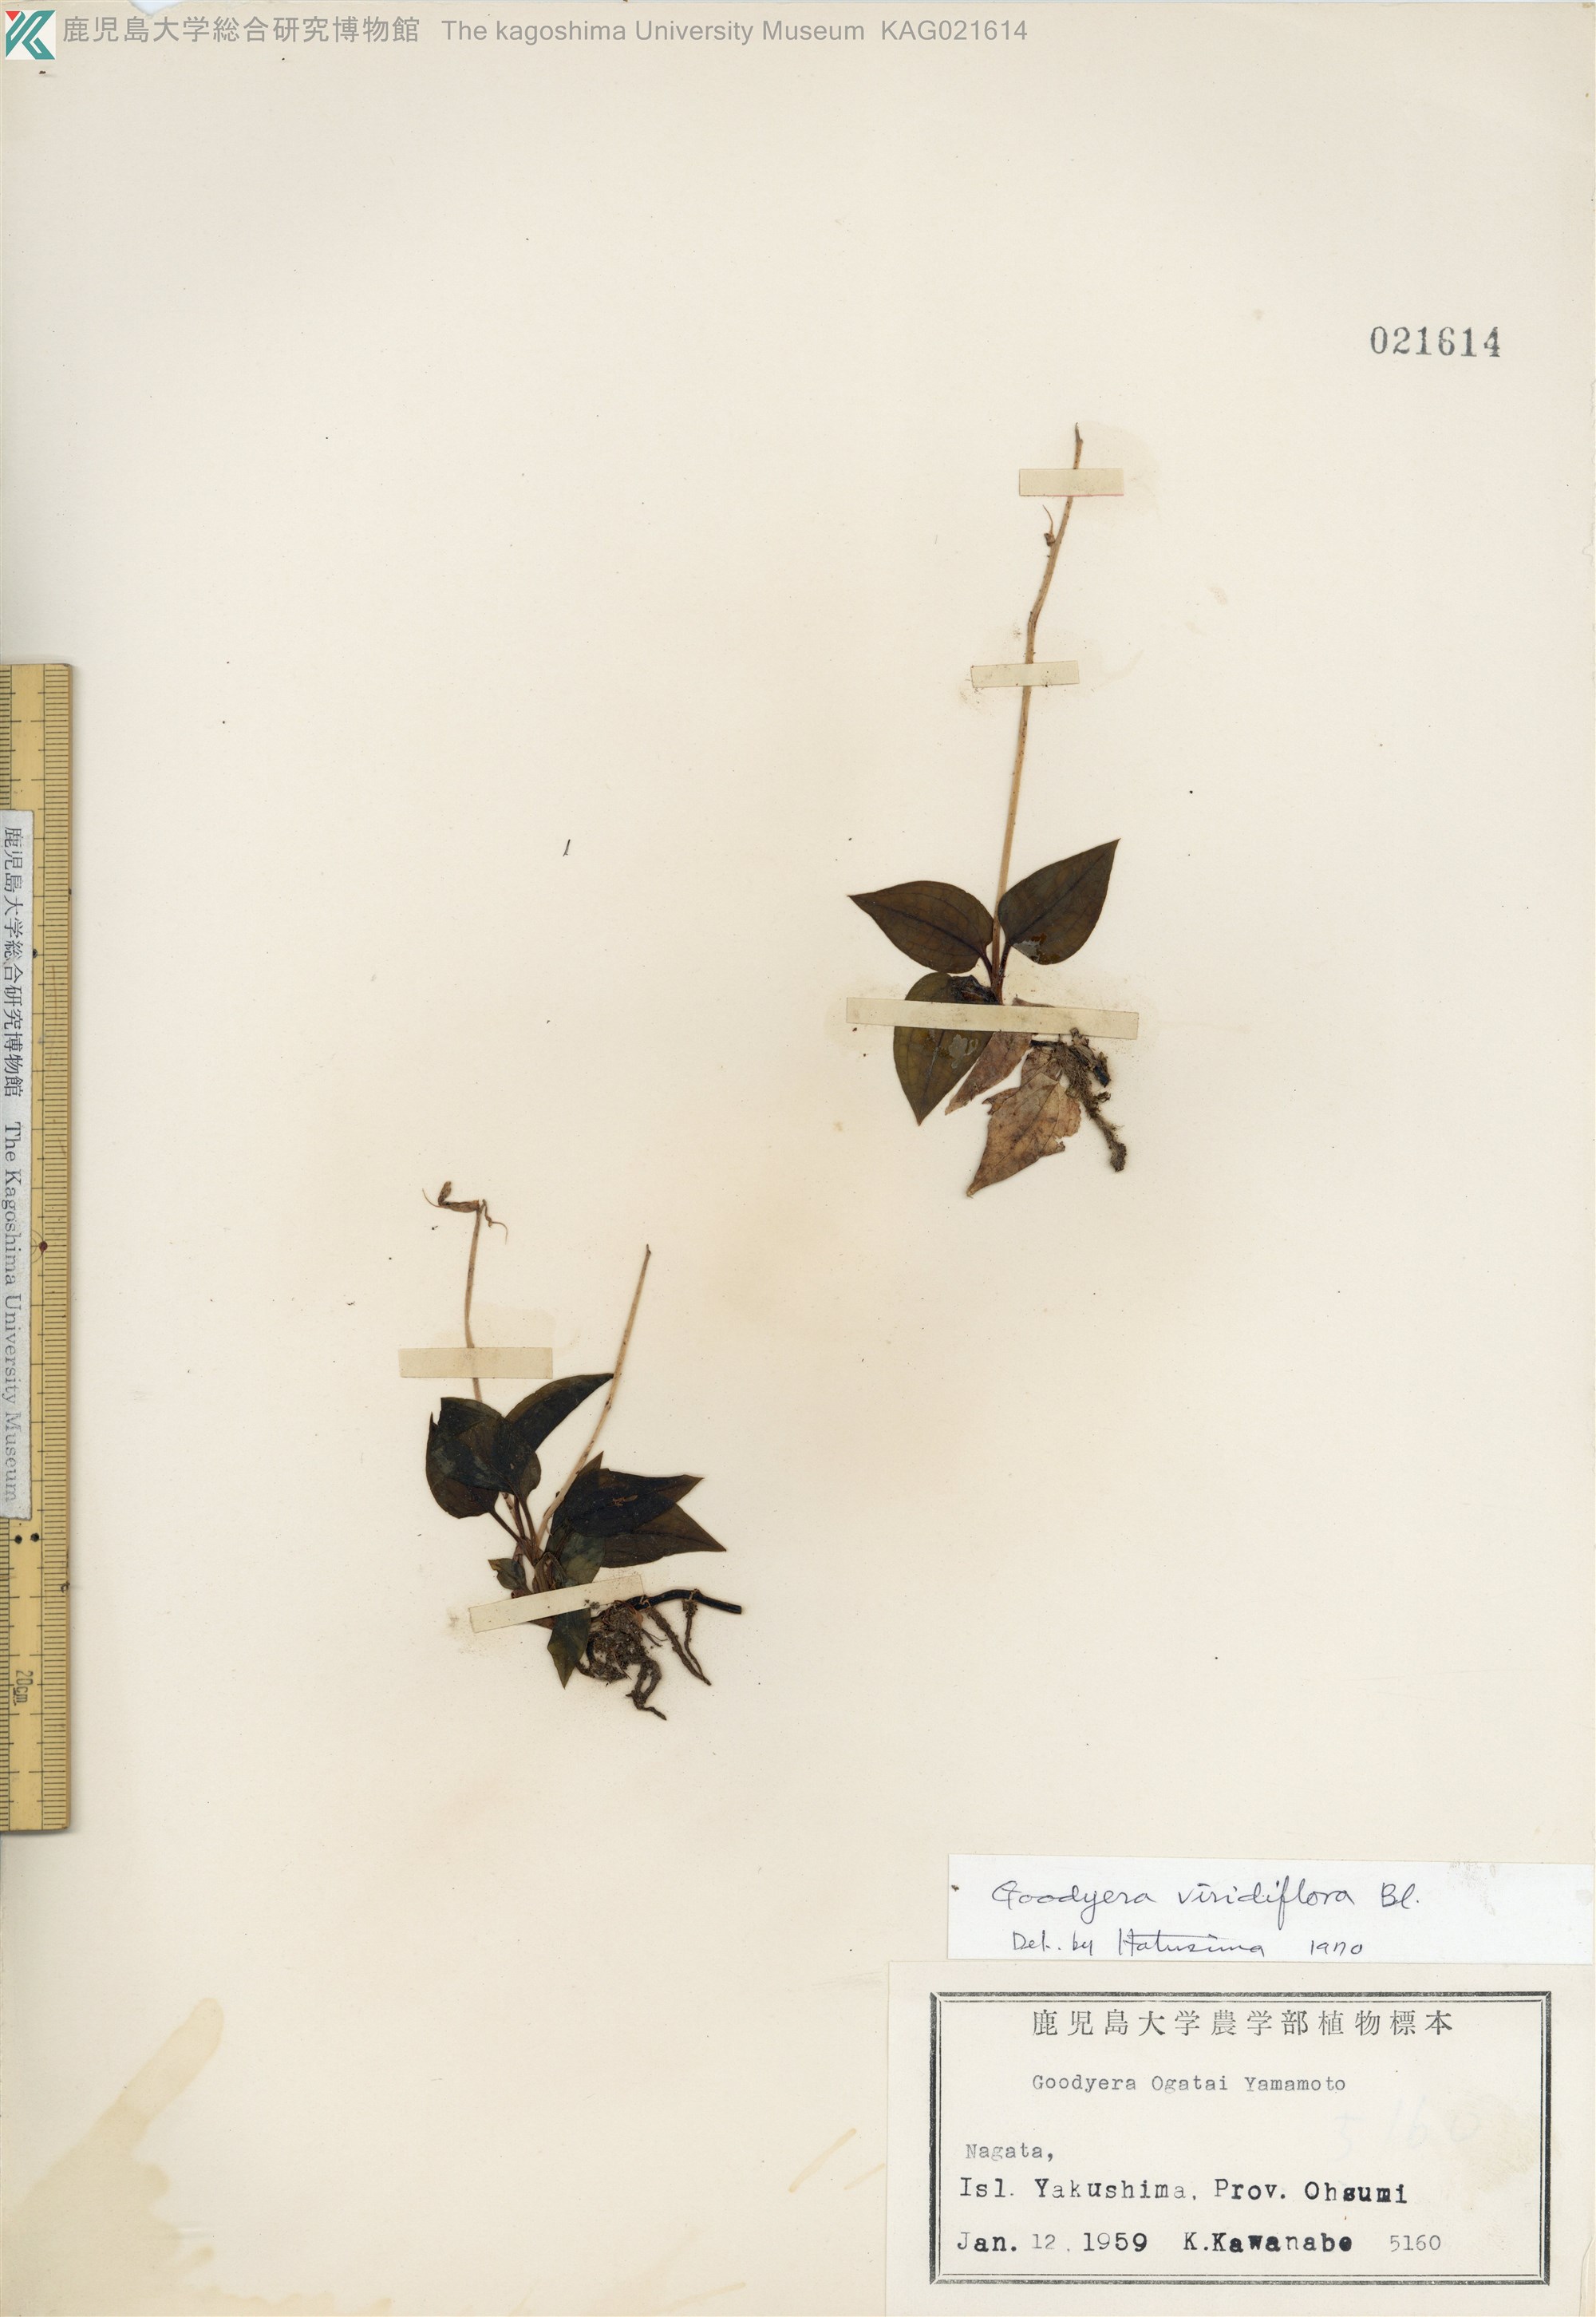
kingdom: Plantae
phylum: Tracheophyta
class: Liliopsida
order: Asparagales
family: Orchidaceae
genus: Goodyera
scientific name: Goodyera viridiflora
